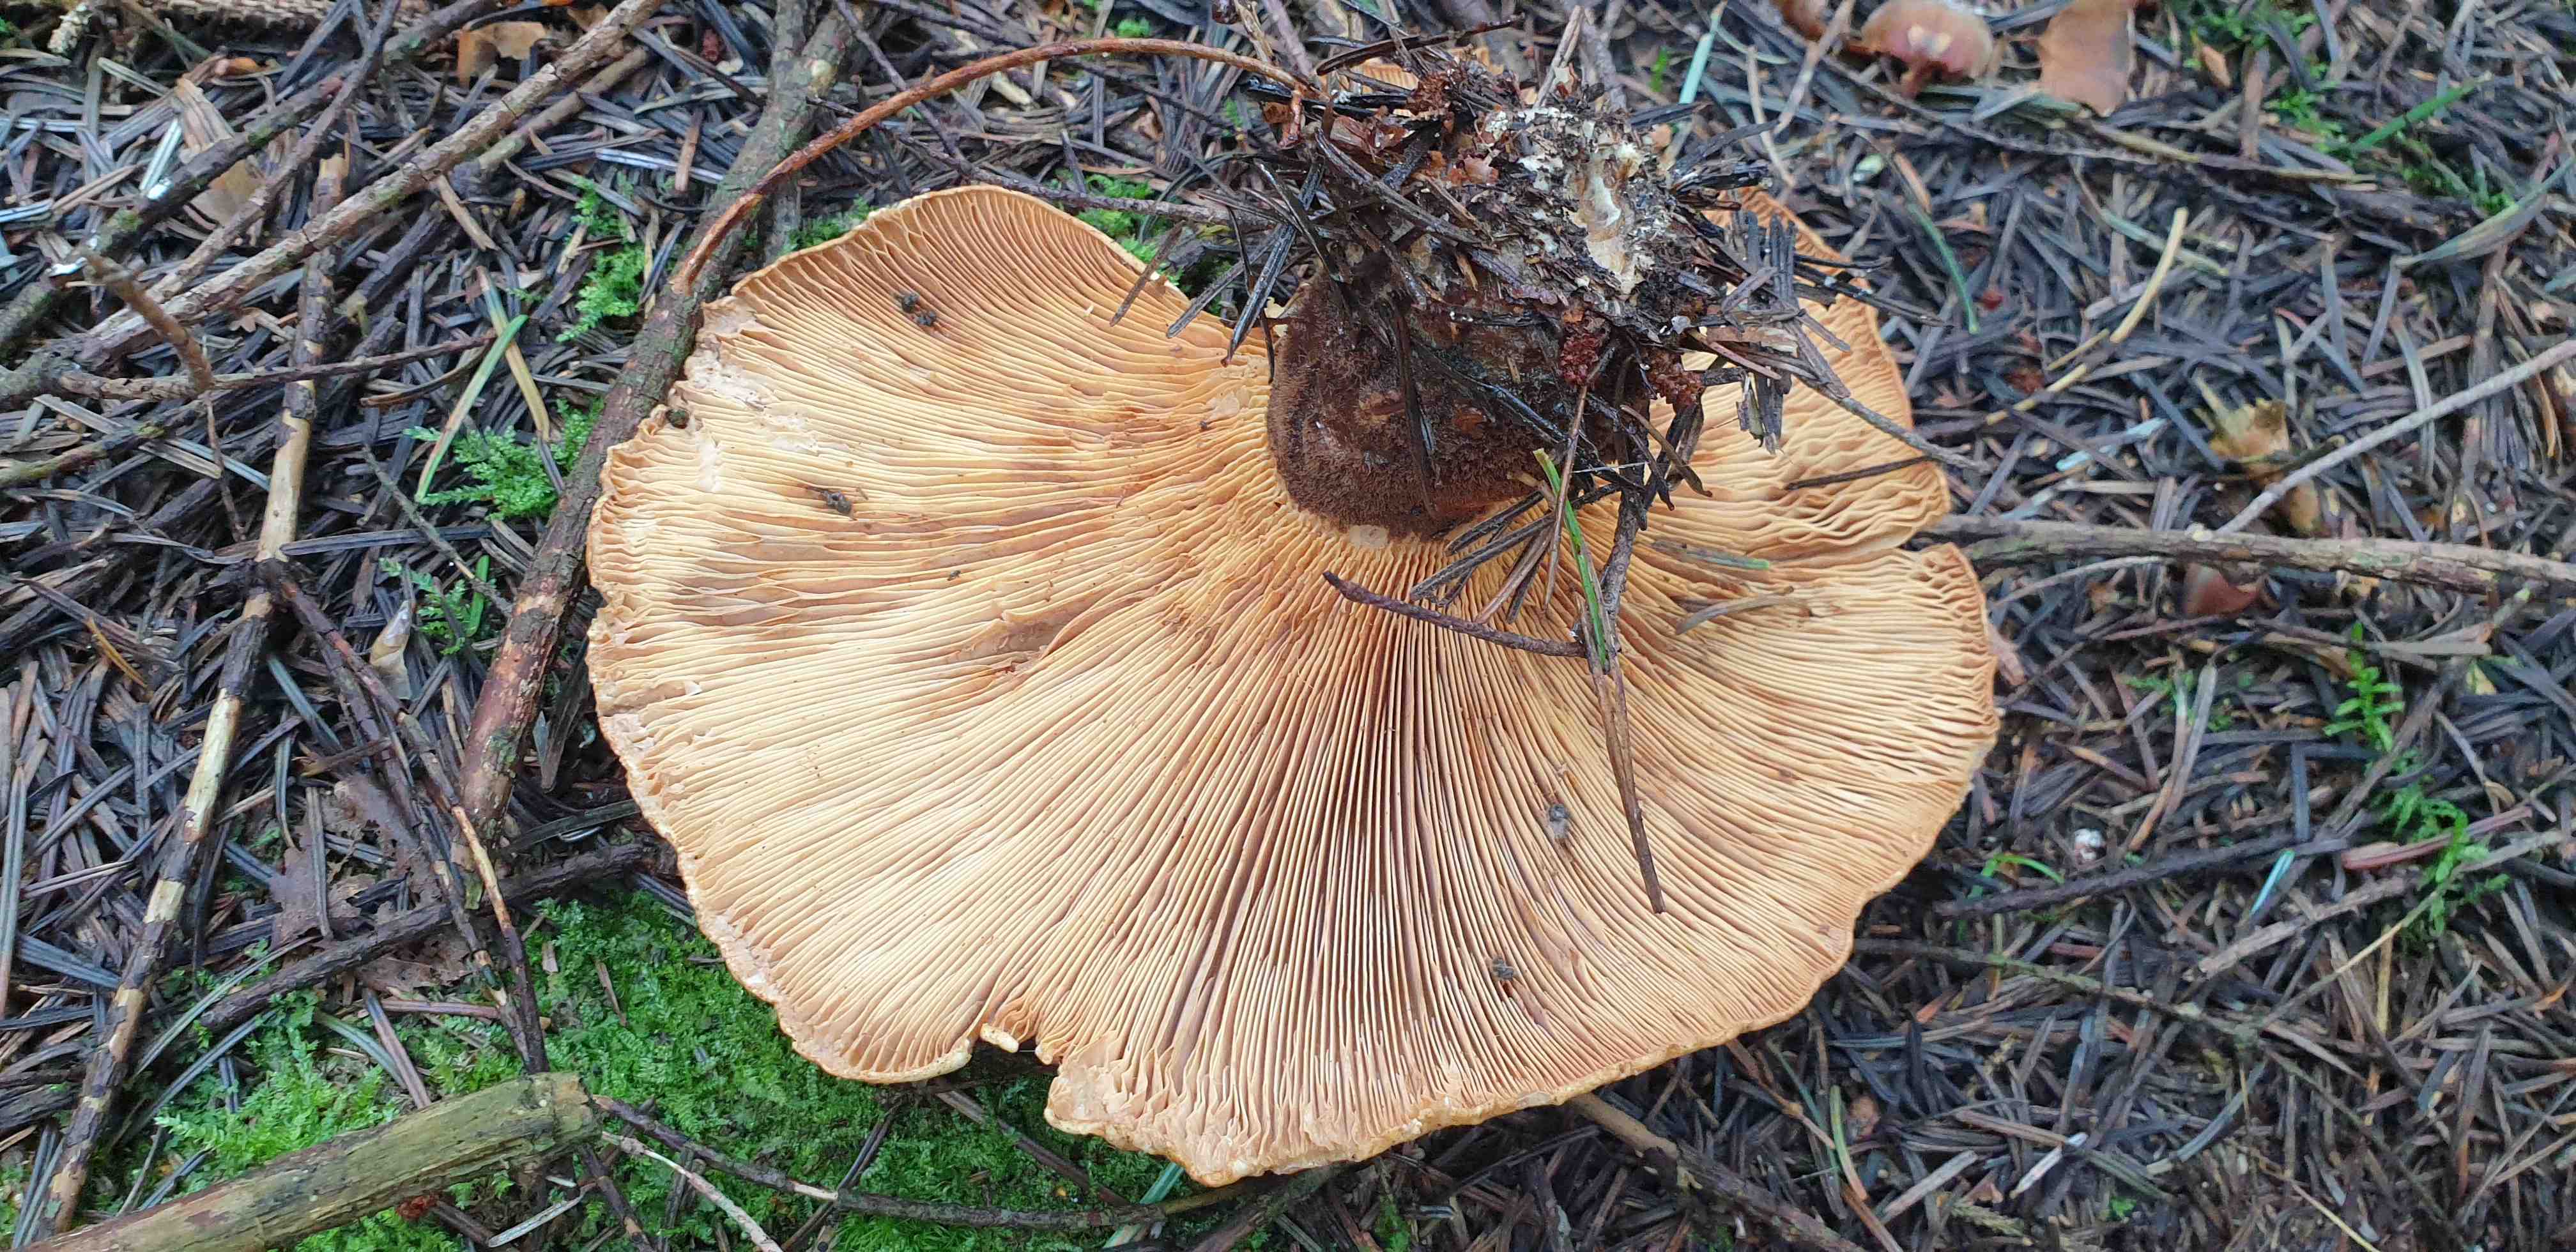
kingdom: Fungi
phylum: Basidiomycota
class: Agaricomycetes
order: Boletales
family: Tapinellaceae
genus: Tapinella
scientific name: Tapinella atrotomentosa
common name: sortfiltet viftesvamp
